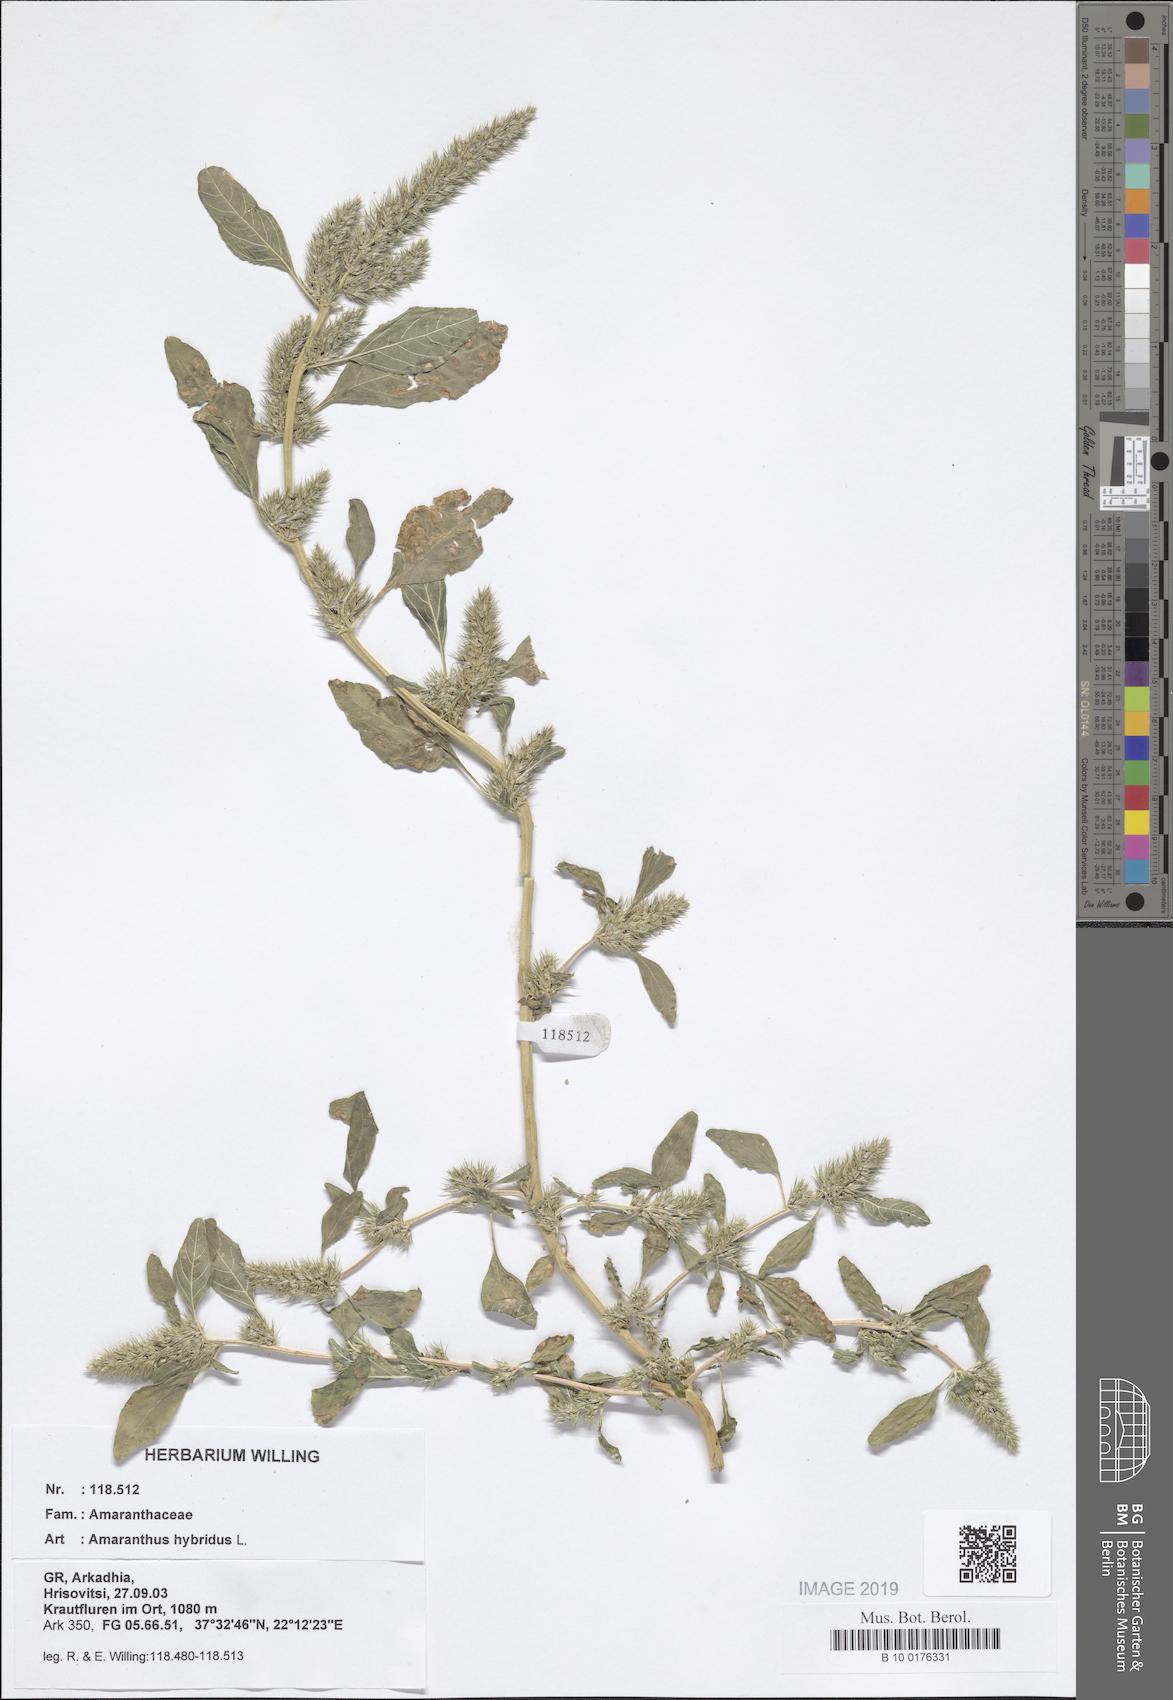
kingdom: Plantae
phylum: Tracheophyta
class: Magnoliopsida
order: Caryophyllales
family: Amaranthaceae
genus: Amaranthus
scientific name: Amaranthus hybridus
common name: Green amaranth
